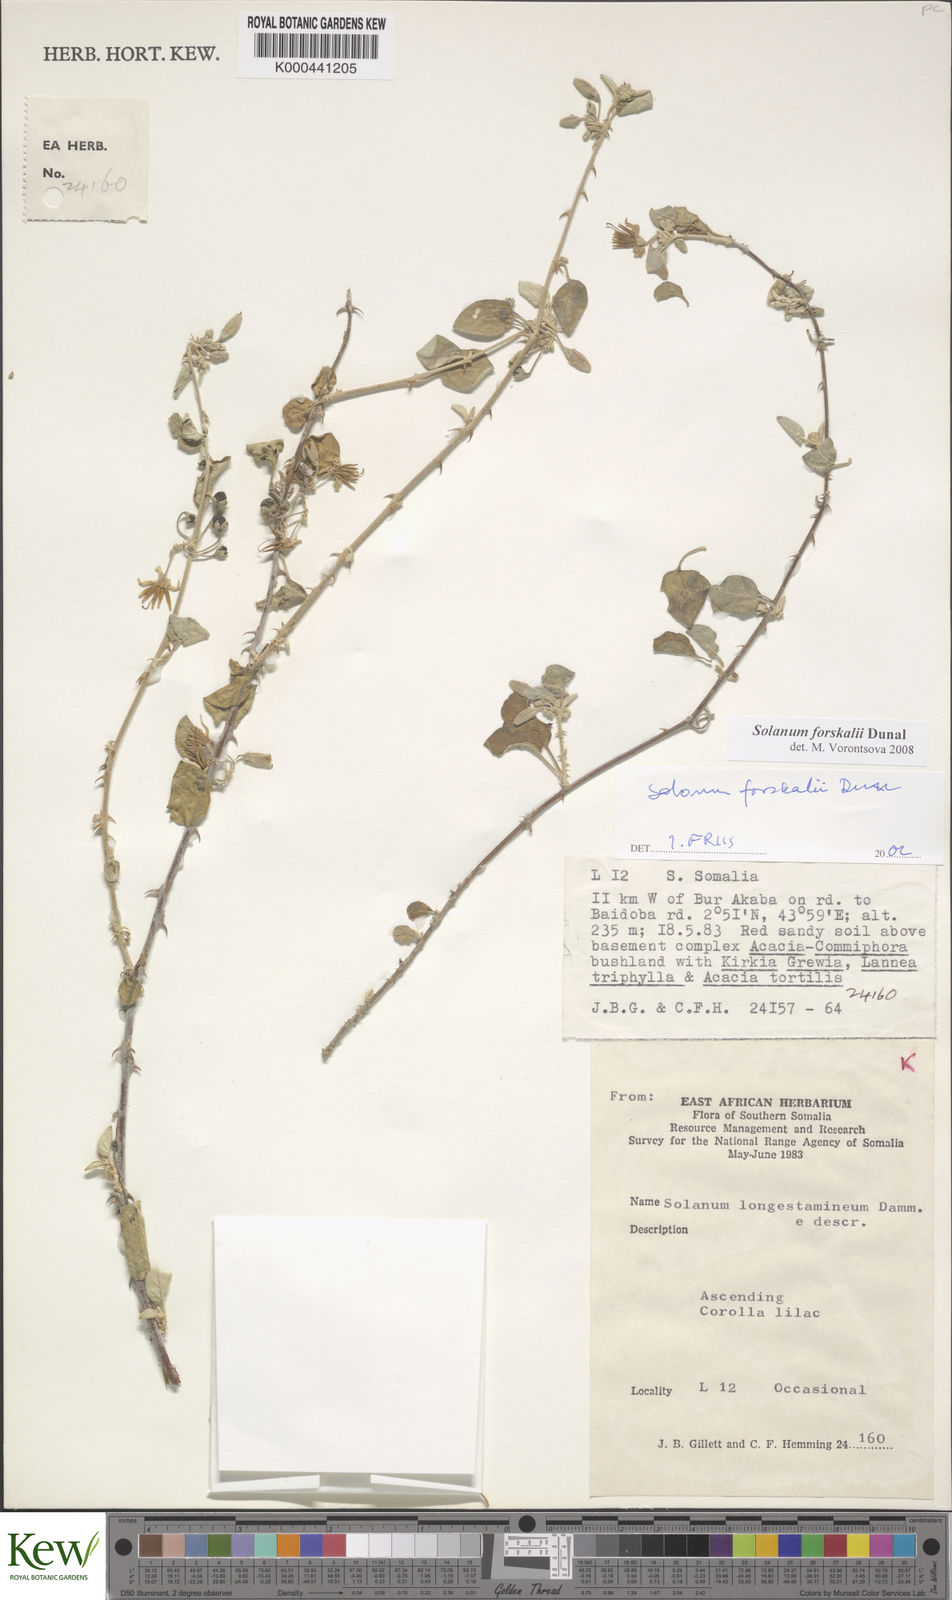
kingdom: Plantae
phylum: Tracheophyta
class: Magnoliopsida
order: Solanales
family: Solanaceae
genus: Solanum
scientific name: Solanum
